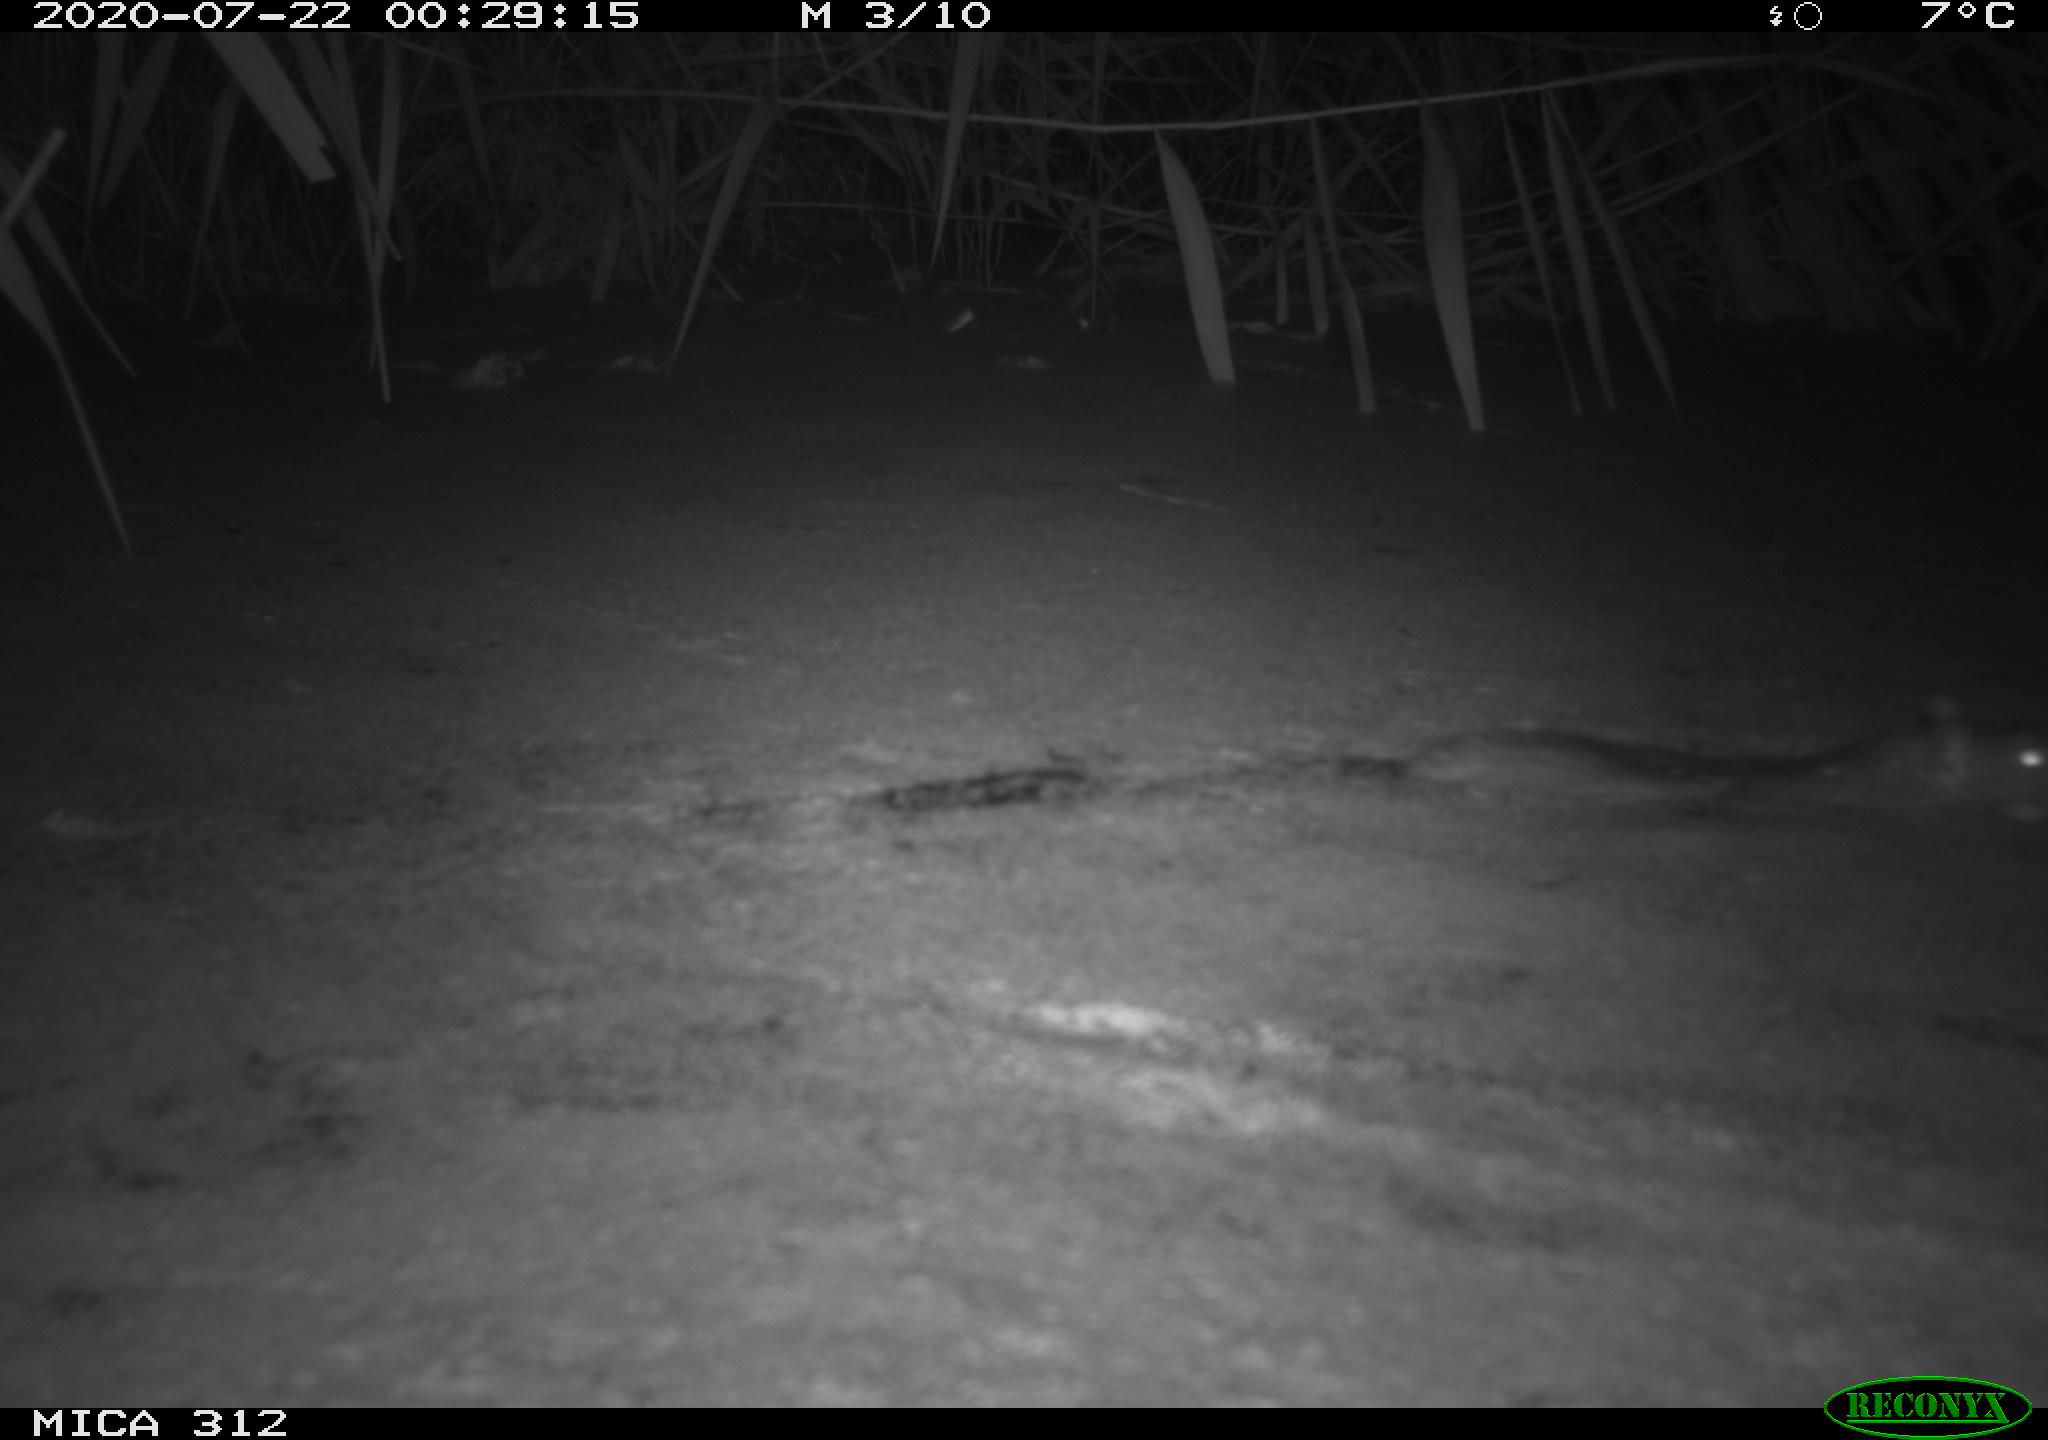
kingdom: Animalia
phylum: Chordata
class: Mammalia
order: Rodentia
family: Muridae
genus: Rattus
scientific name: Rattus norvegicus
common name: Brown rat
